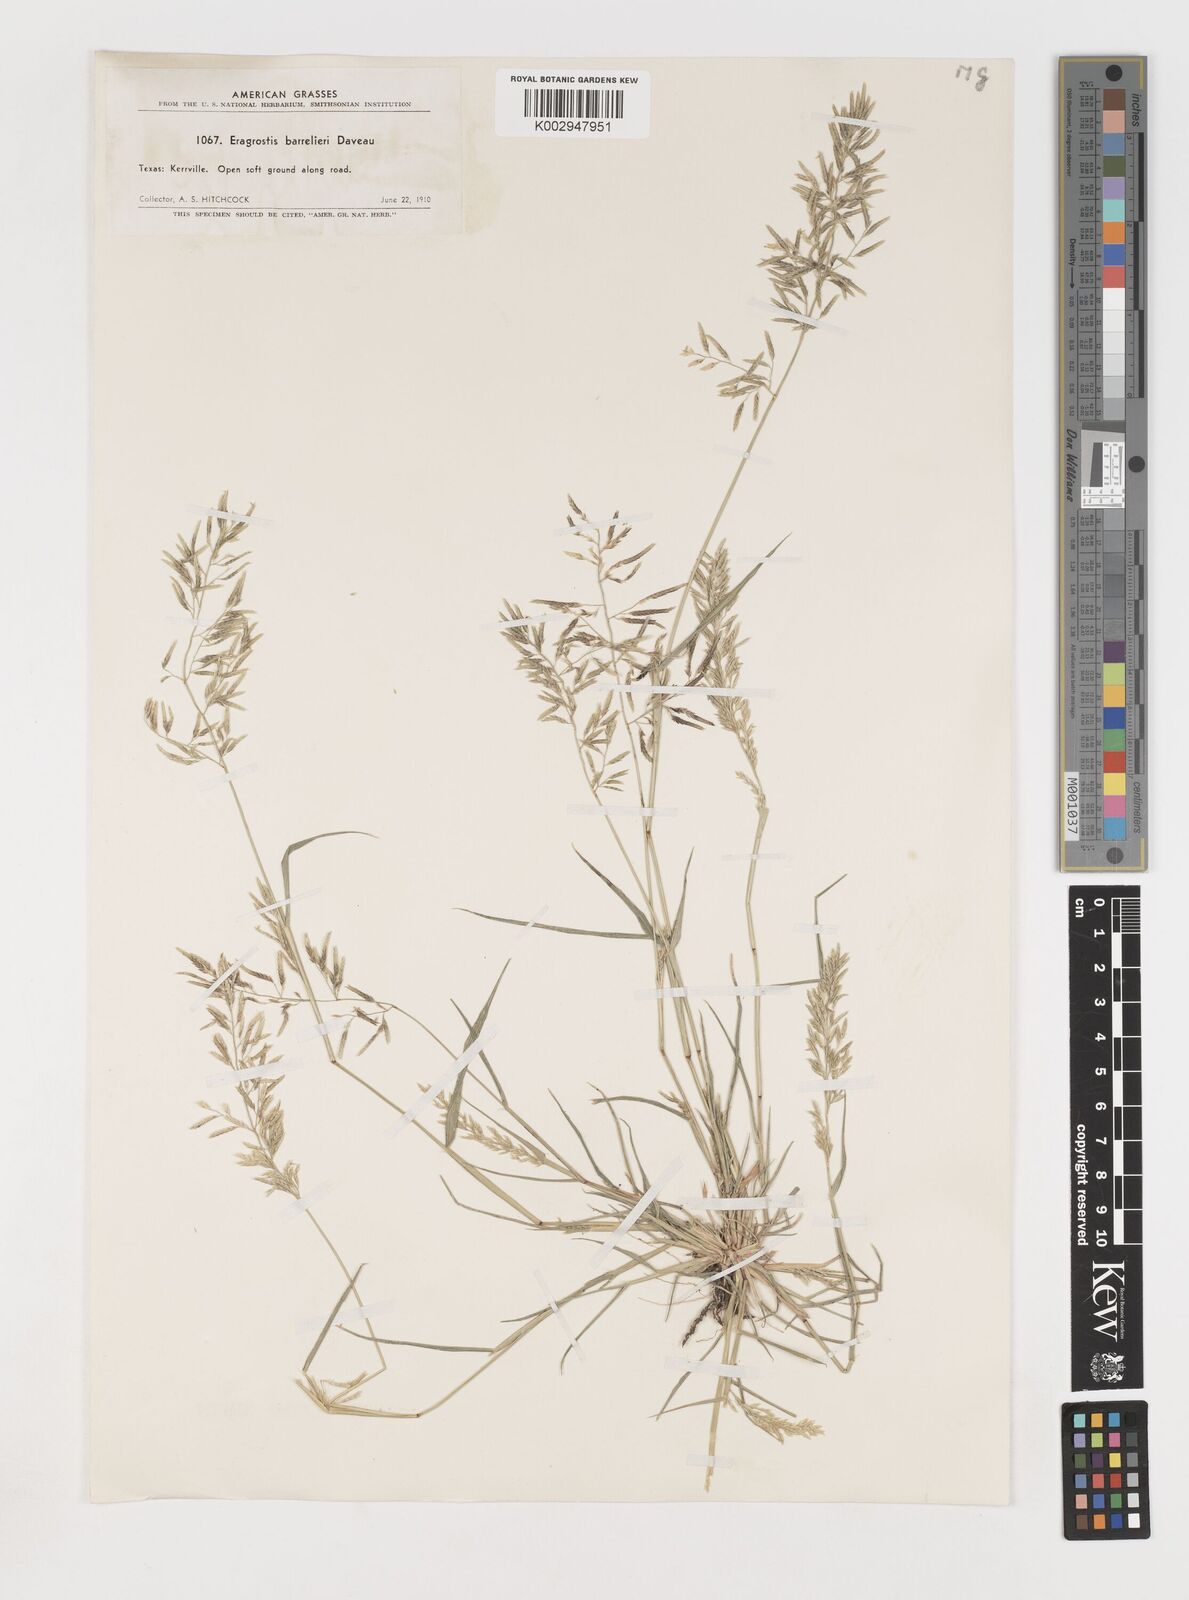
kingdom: Plantae
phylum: Tracheophyta
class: Liliopsida
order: Poales
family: Poaceae
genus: Eragrostis
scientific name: Eragrostis barrelieri
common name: Mediterranean lovegrass
